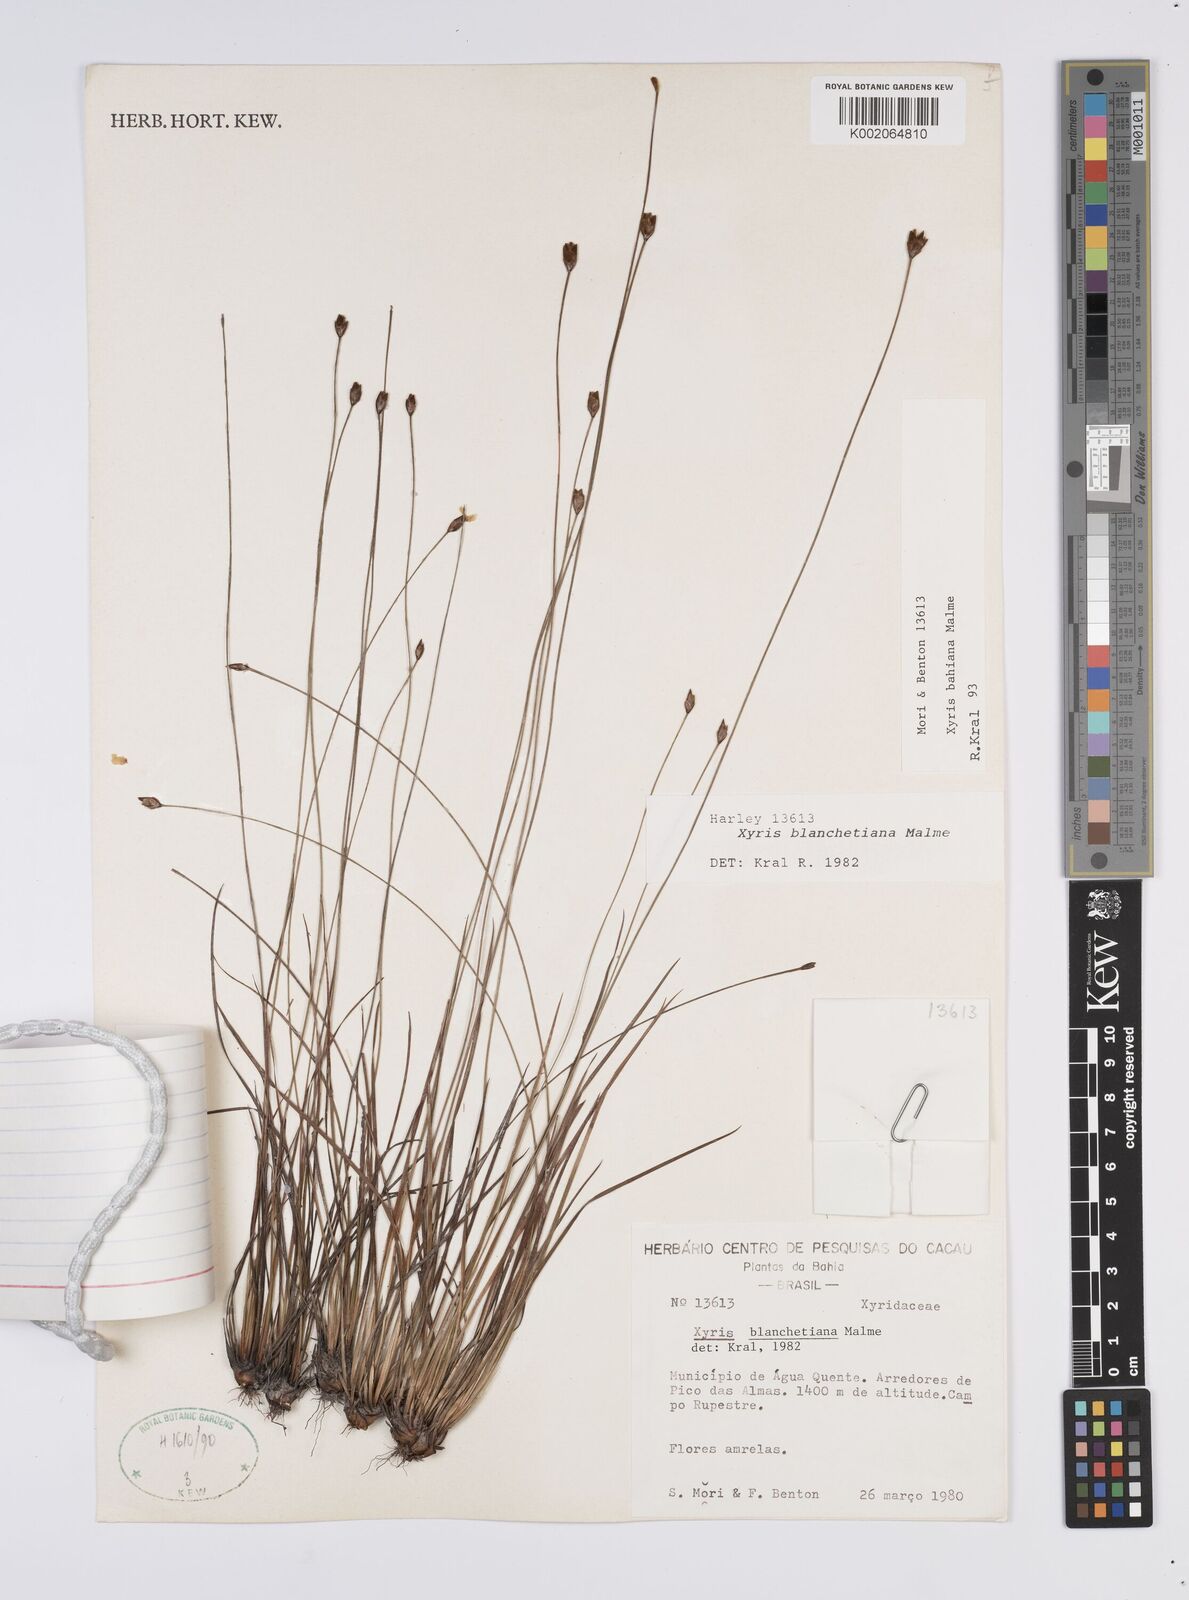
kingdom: Plantae
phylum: Tracheophyta
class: Liliopsida
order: Poales
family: Xyridaceae
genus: Xyris
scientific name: Xyris bahiana
